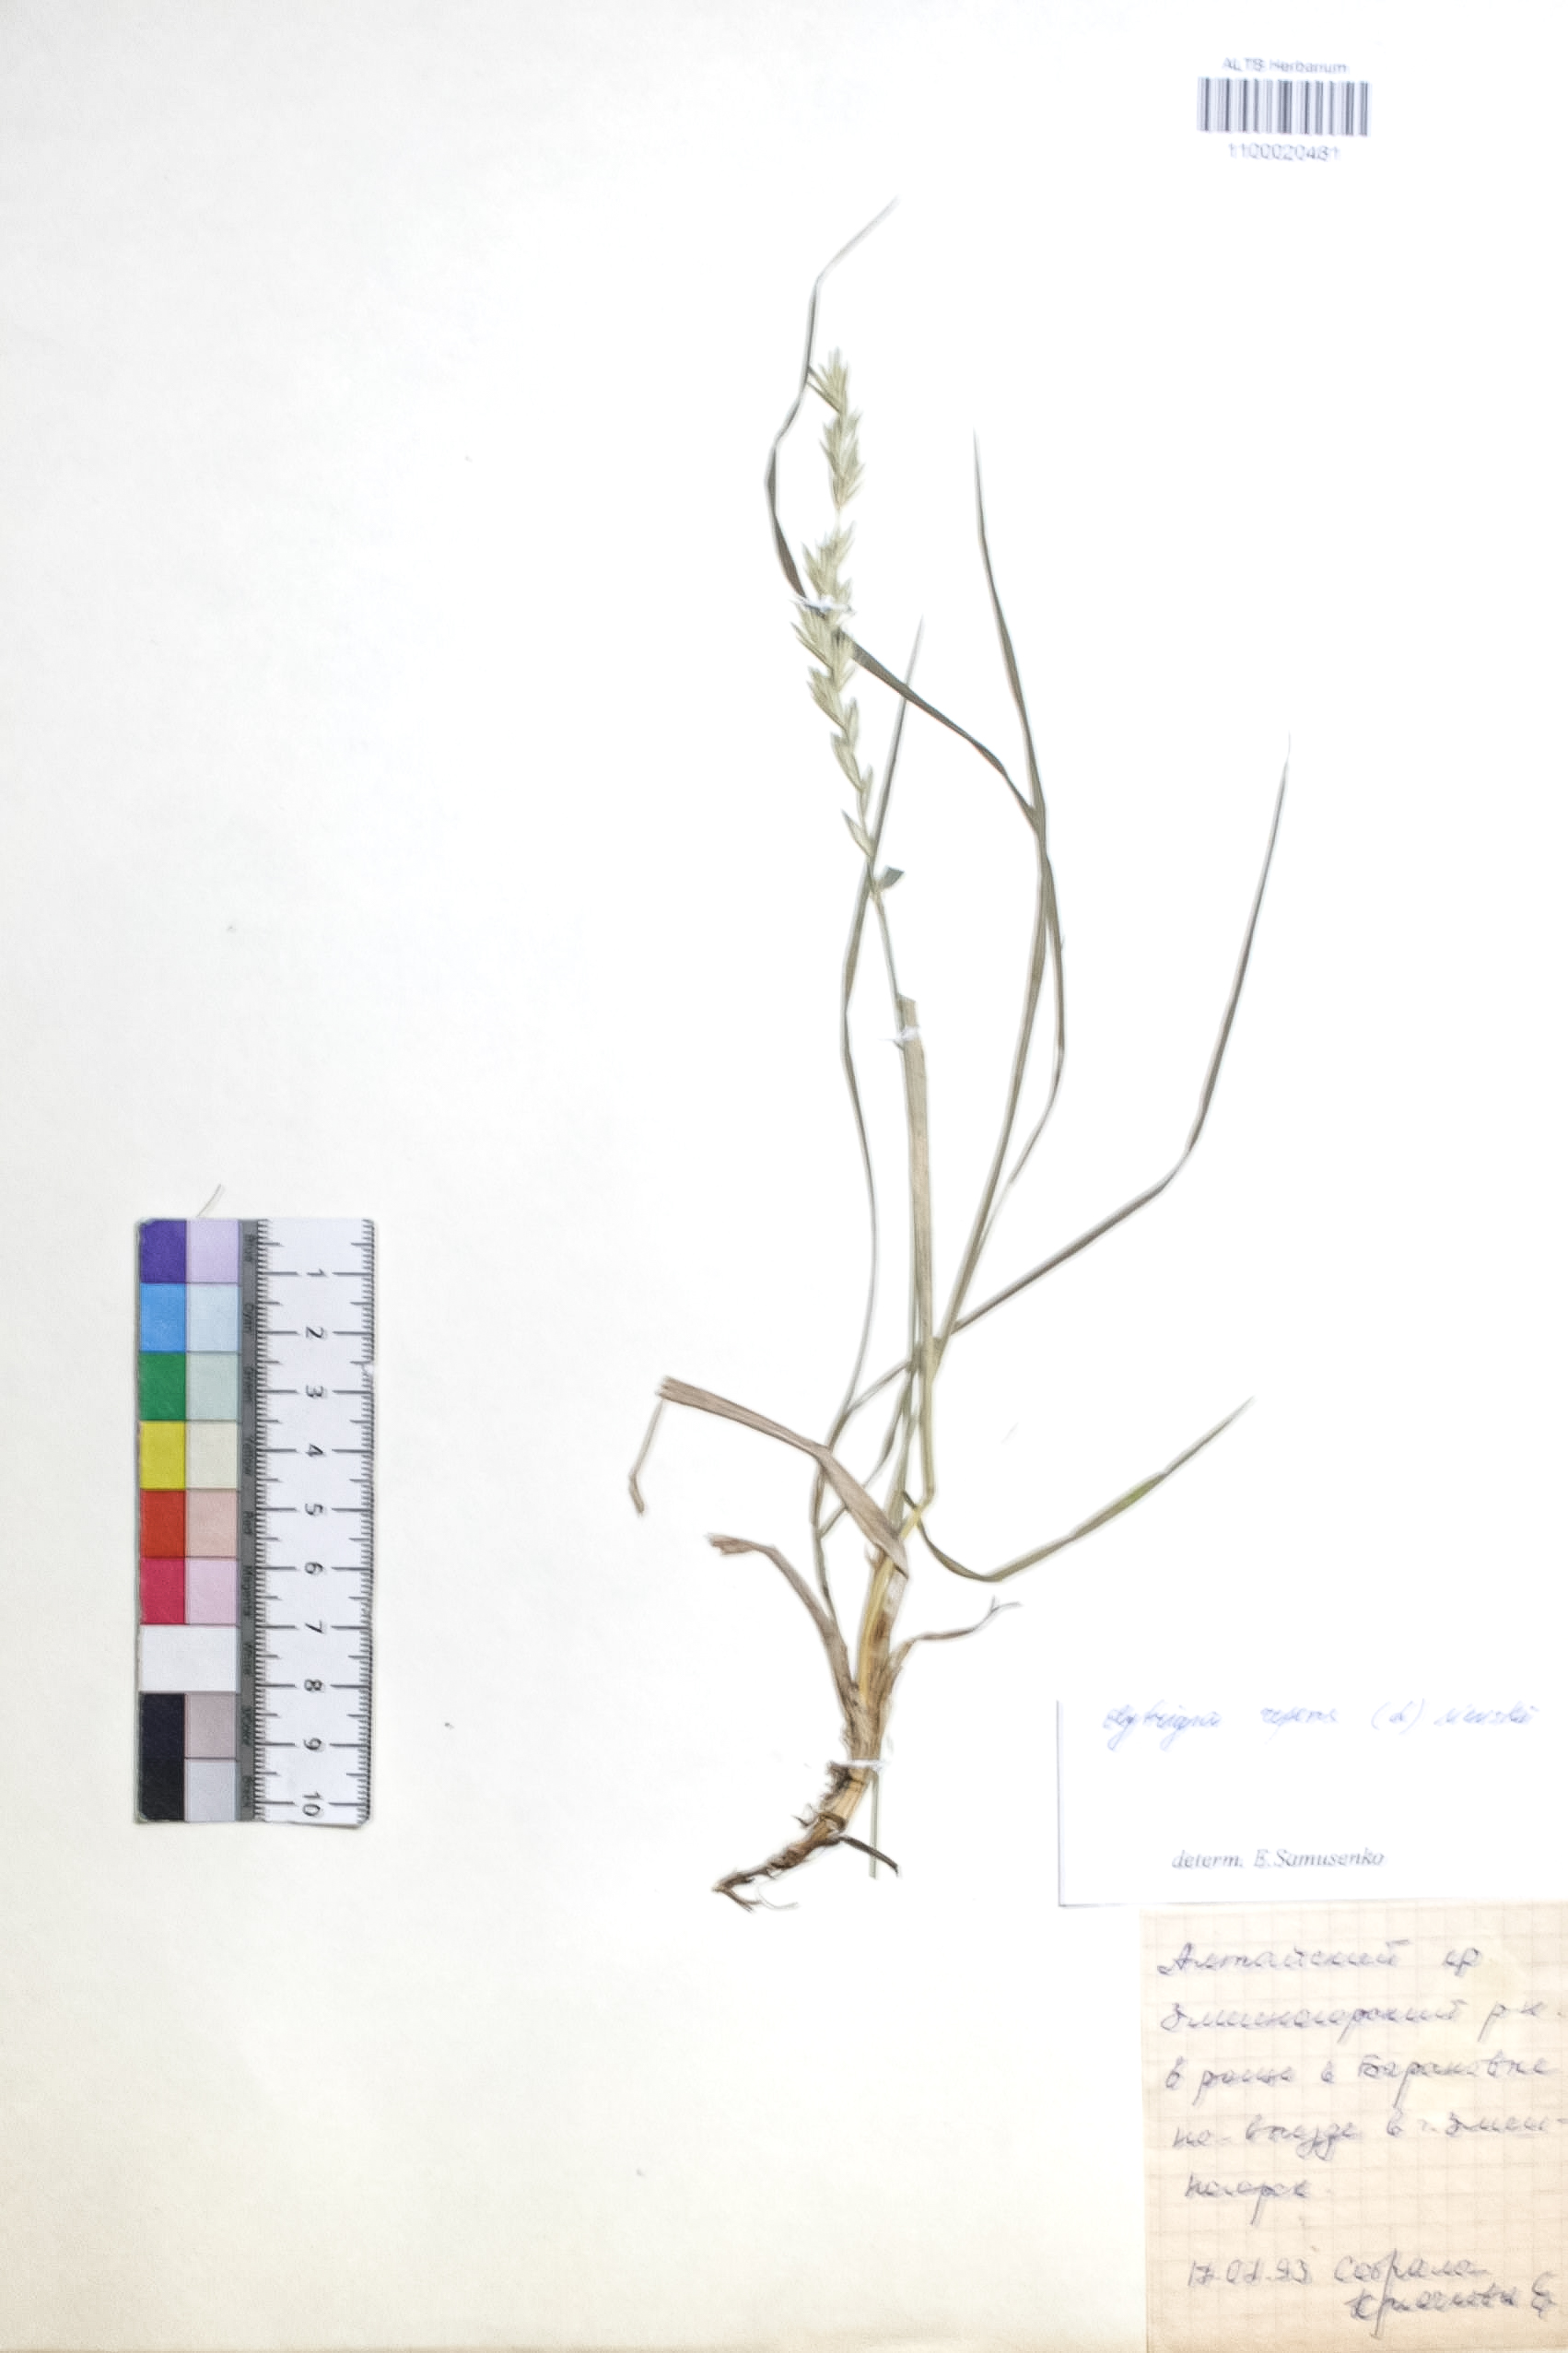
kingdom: Plantae
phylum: Tracheophyta
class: Liliopsida
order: Poales
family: Poaceae
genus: Elymus
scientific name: Elymus repens
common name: Quackgrass
